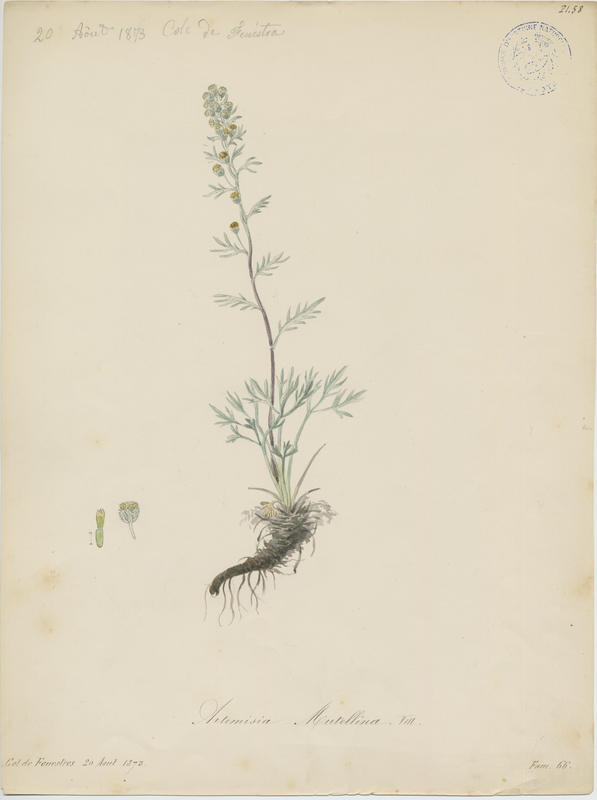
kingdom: Plantae
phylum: Tracheophyta
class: Magnoliopsida
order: Asterales
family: Asteraceae
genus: Artemisia
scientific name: Artemisia mutellina
